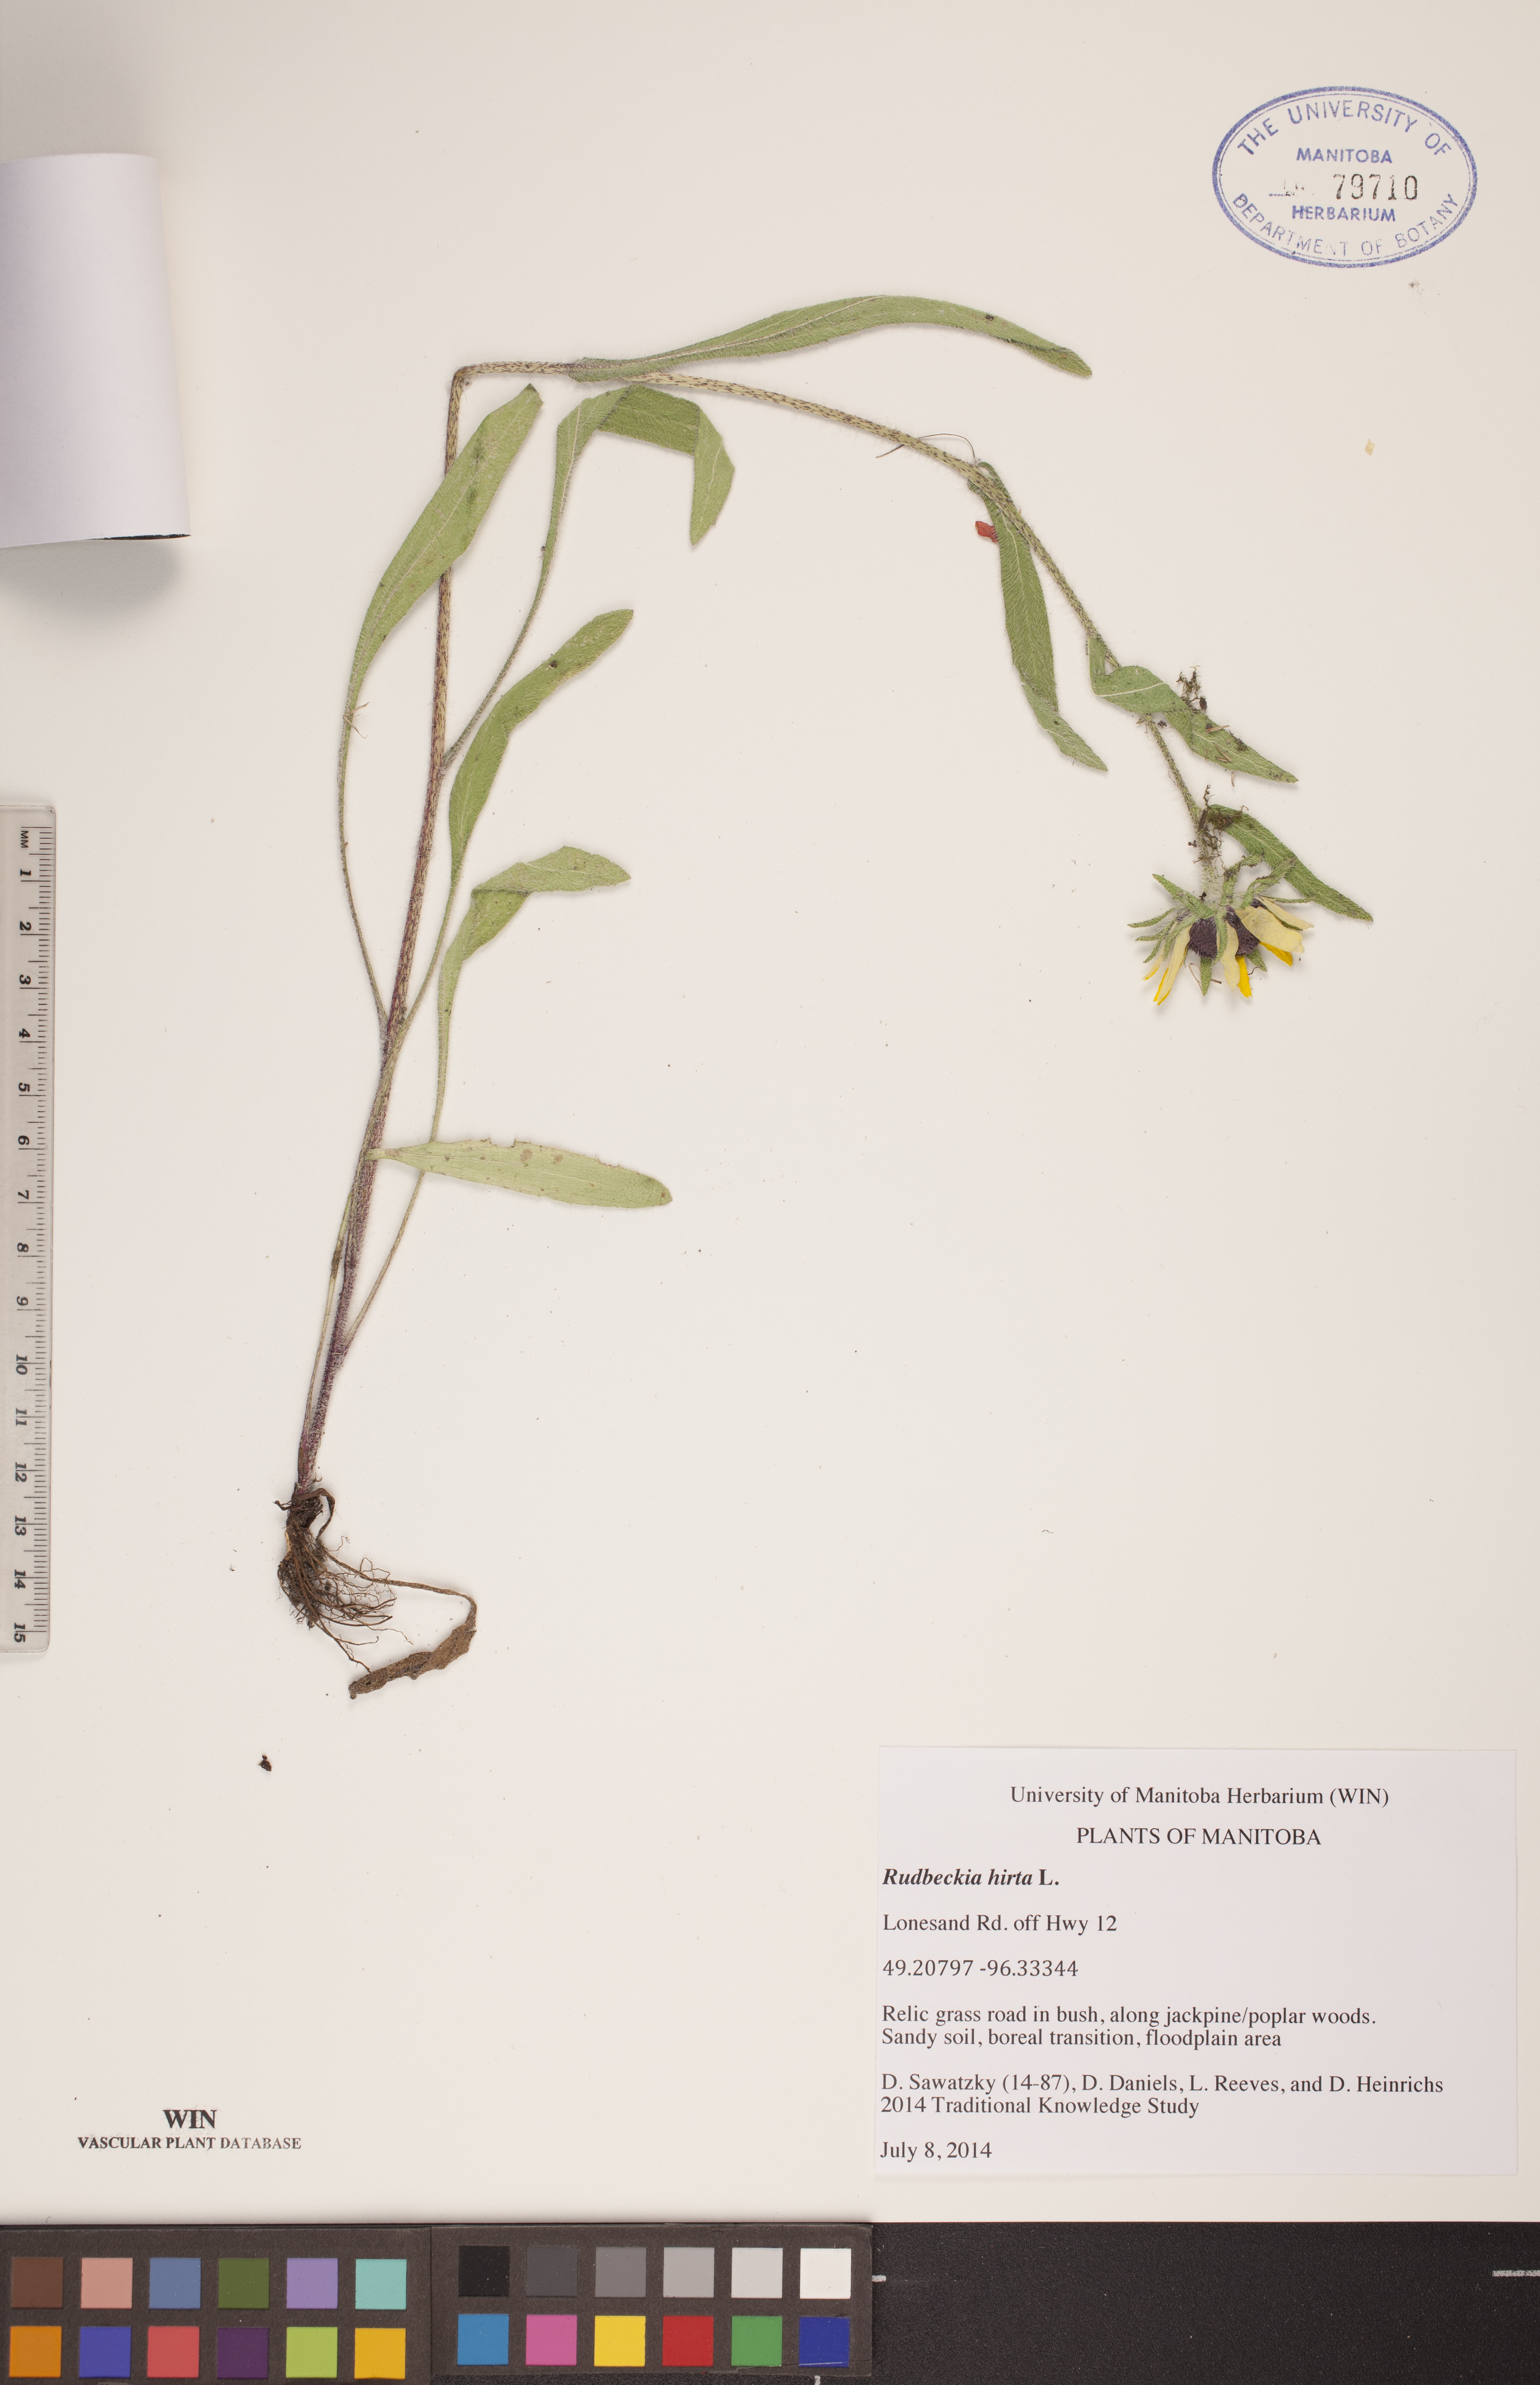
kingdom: Plantae
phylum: Tracheophyta
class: Magnoliopsida
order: Asterales
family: Asteraceae
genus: Rudbeckia
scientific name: Rudbeckia hirta
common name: Black-eyed-susan
